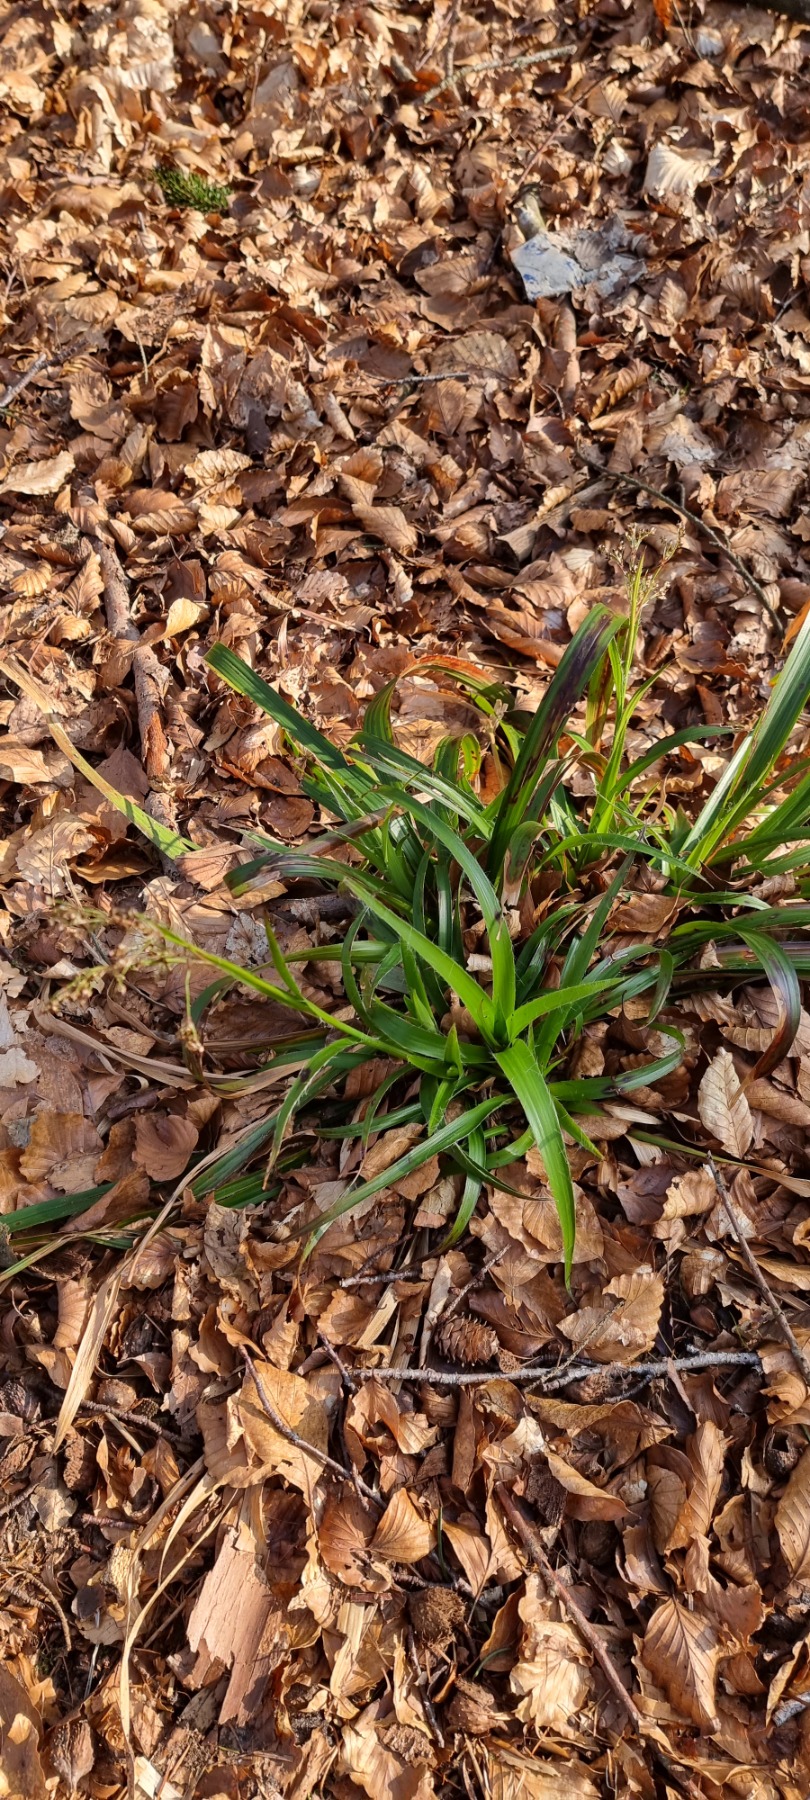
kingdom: Plantae
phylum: Tracheophyta
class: Liliopsida
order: Poales
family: Juncaceae
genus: Luzula
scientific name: Luzula pilosa
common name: Håret frytle
